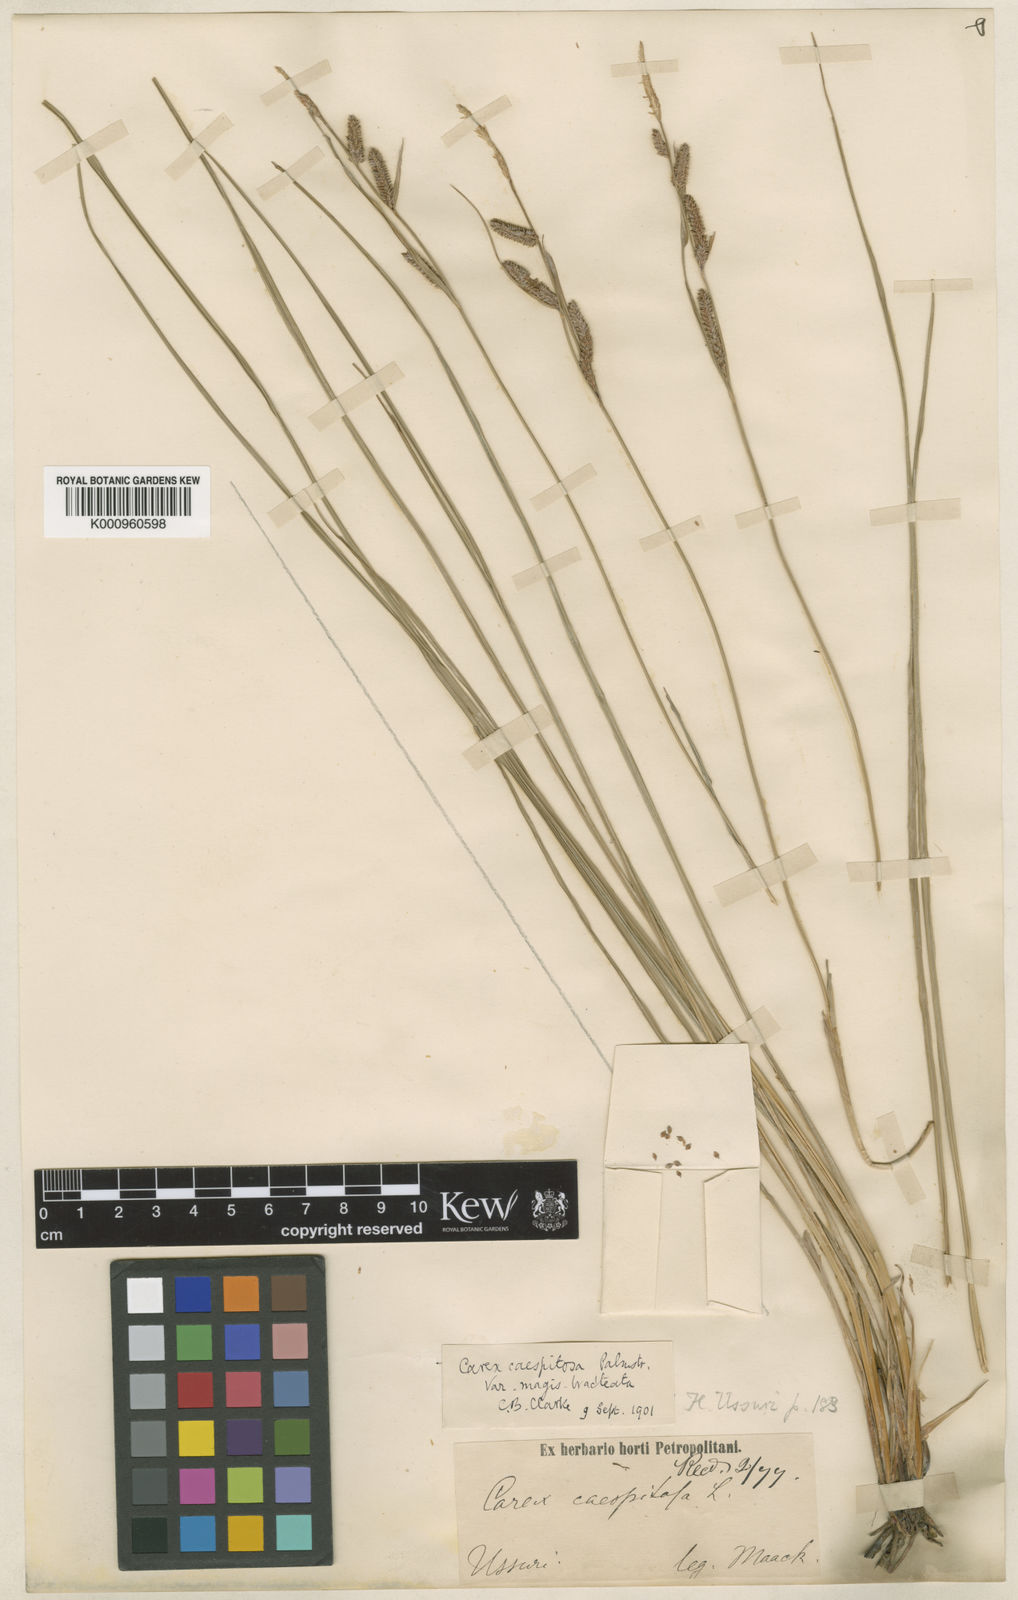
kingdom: Plantae
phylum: Tracheophyta
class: Liliopsida
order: Poales
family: Cyperaceae
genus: Carex
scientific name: Carex cespitosa
